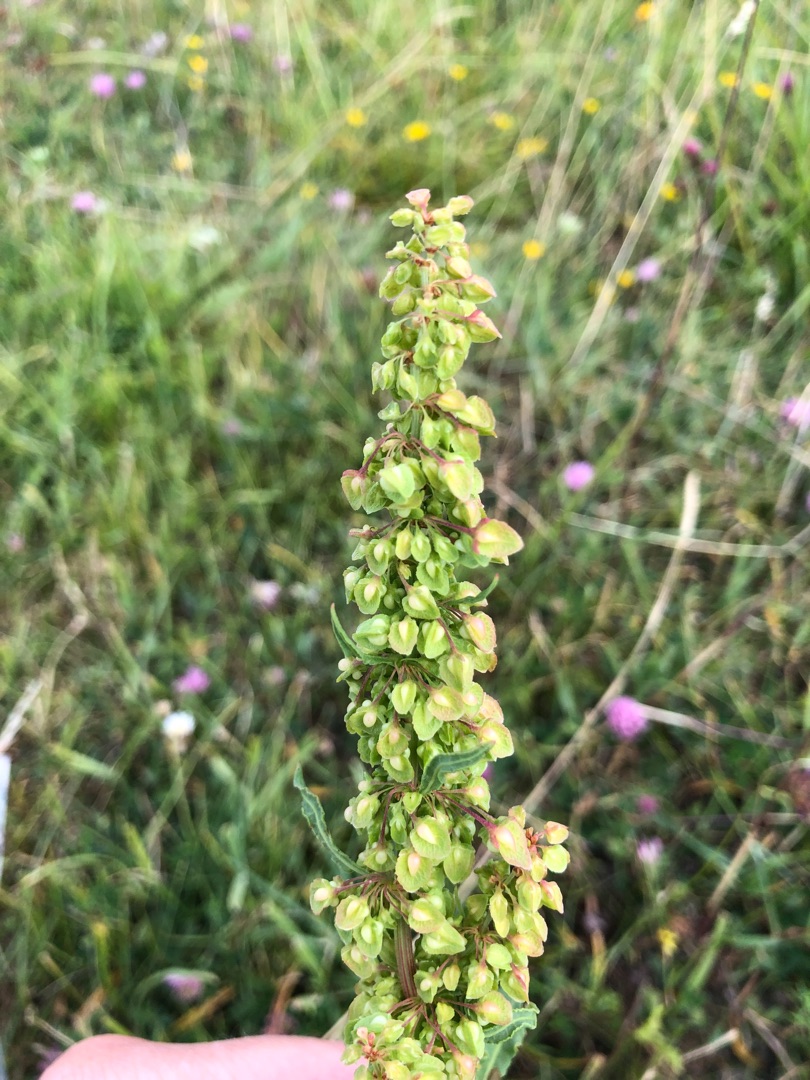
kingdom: Plantae
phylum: Tracheophyta
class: Magnoliopsida
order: Caryophyllales
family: Polygonaceae
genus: Rumex
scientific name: Rumex crispus
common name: Kruset skræppe
